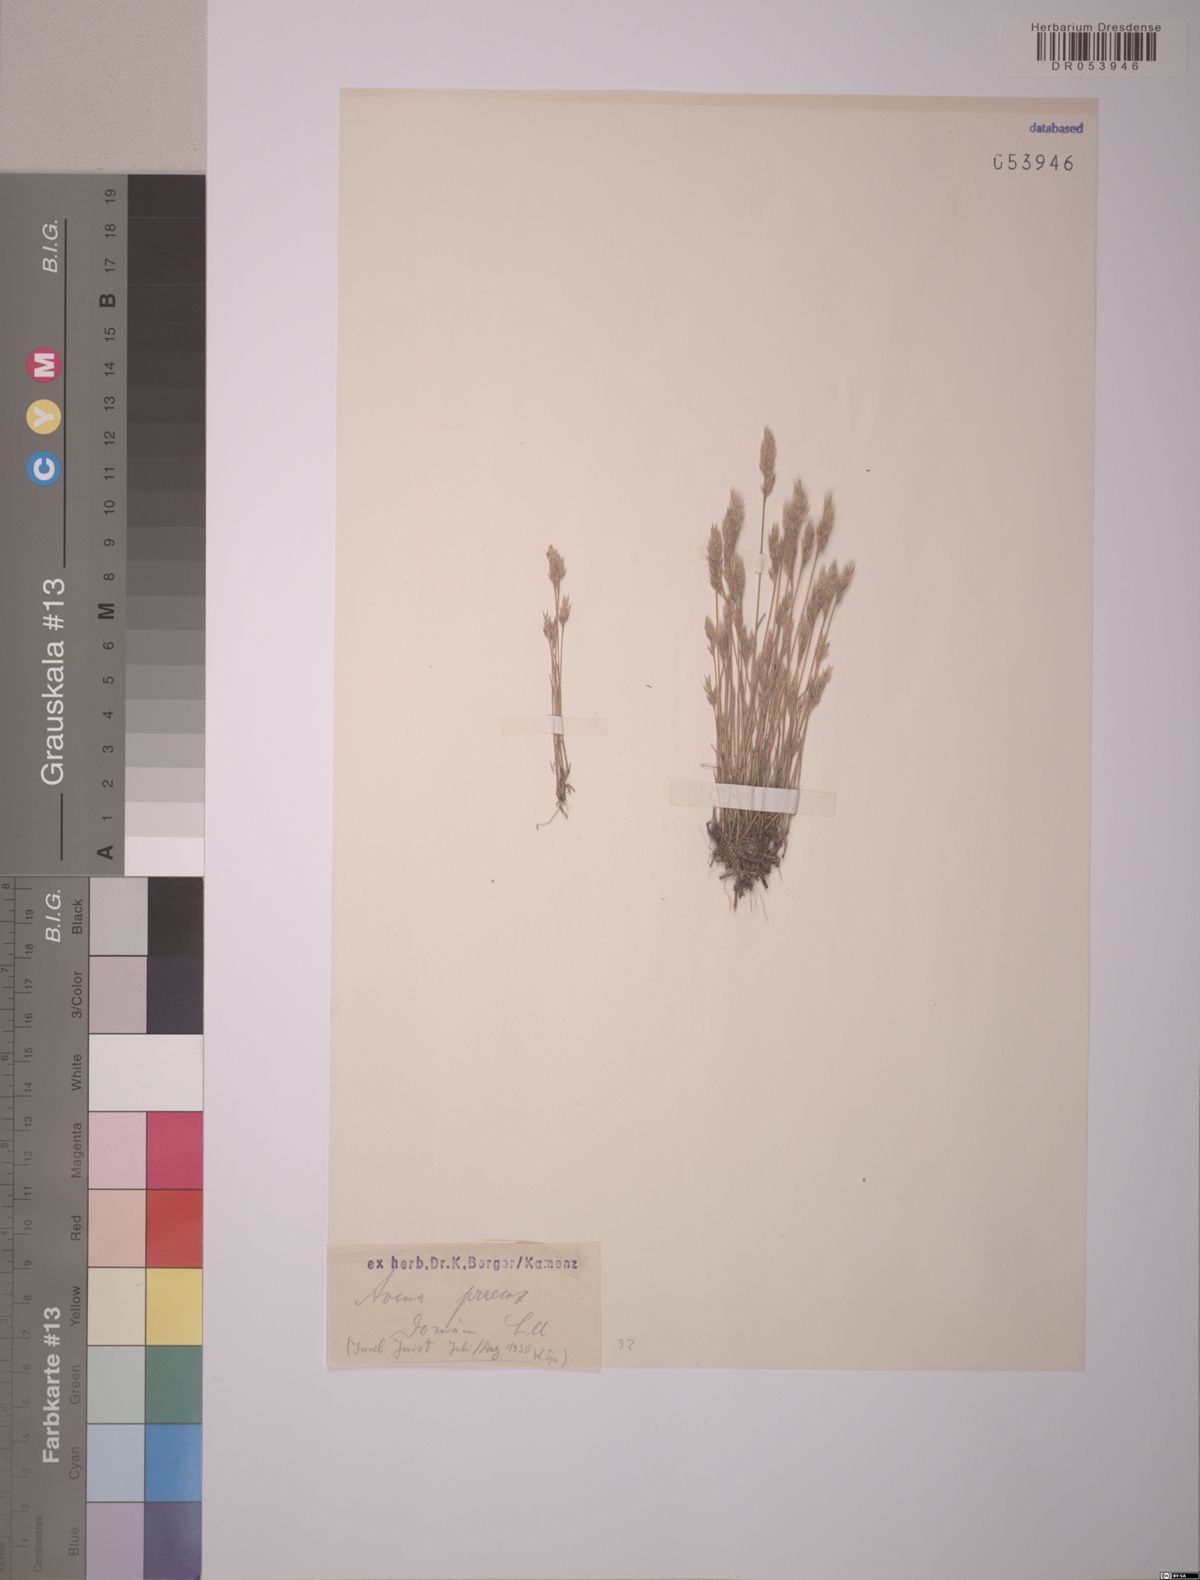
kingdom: Plantae
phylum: Tracheophyta
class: Liliopsida
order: Poales
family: Poaceae
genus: Aira
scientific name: Aira praecox
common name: Early hair-grass
